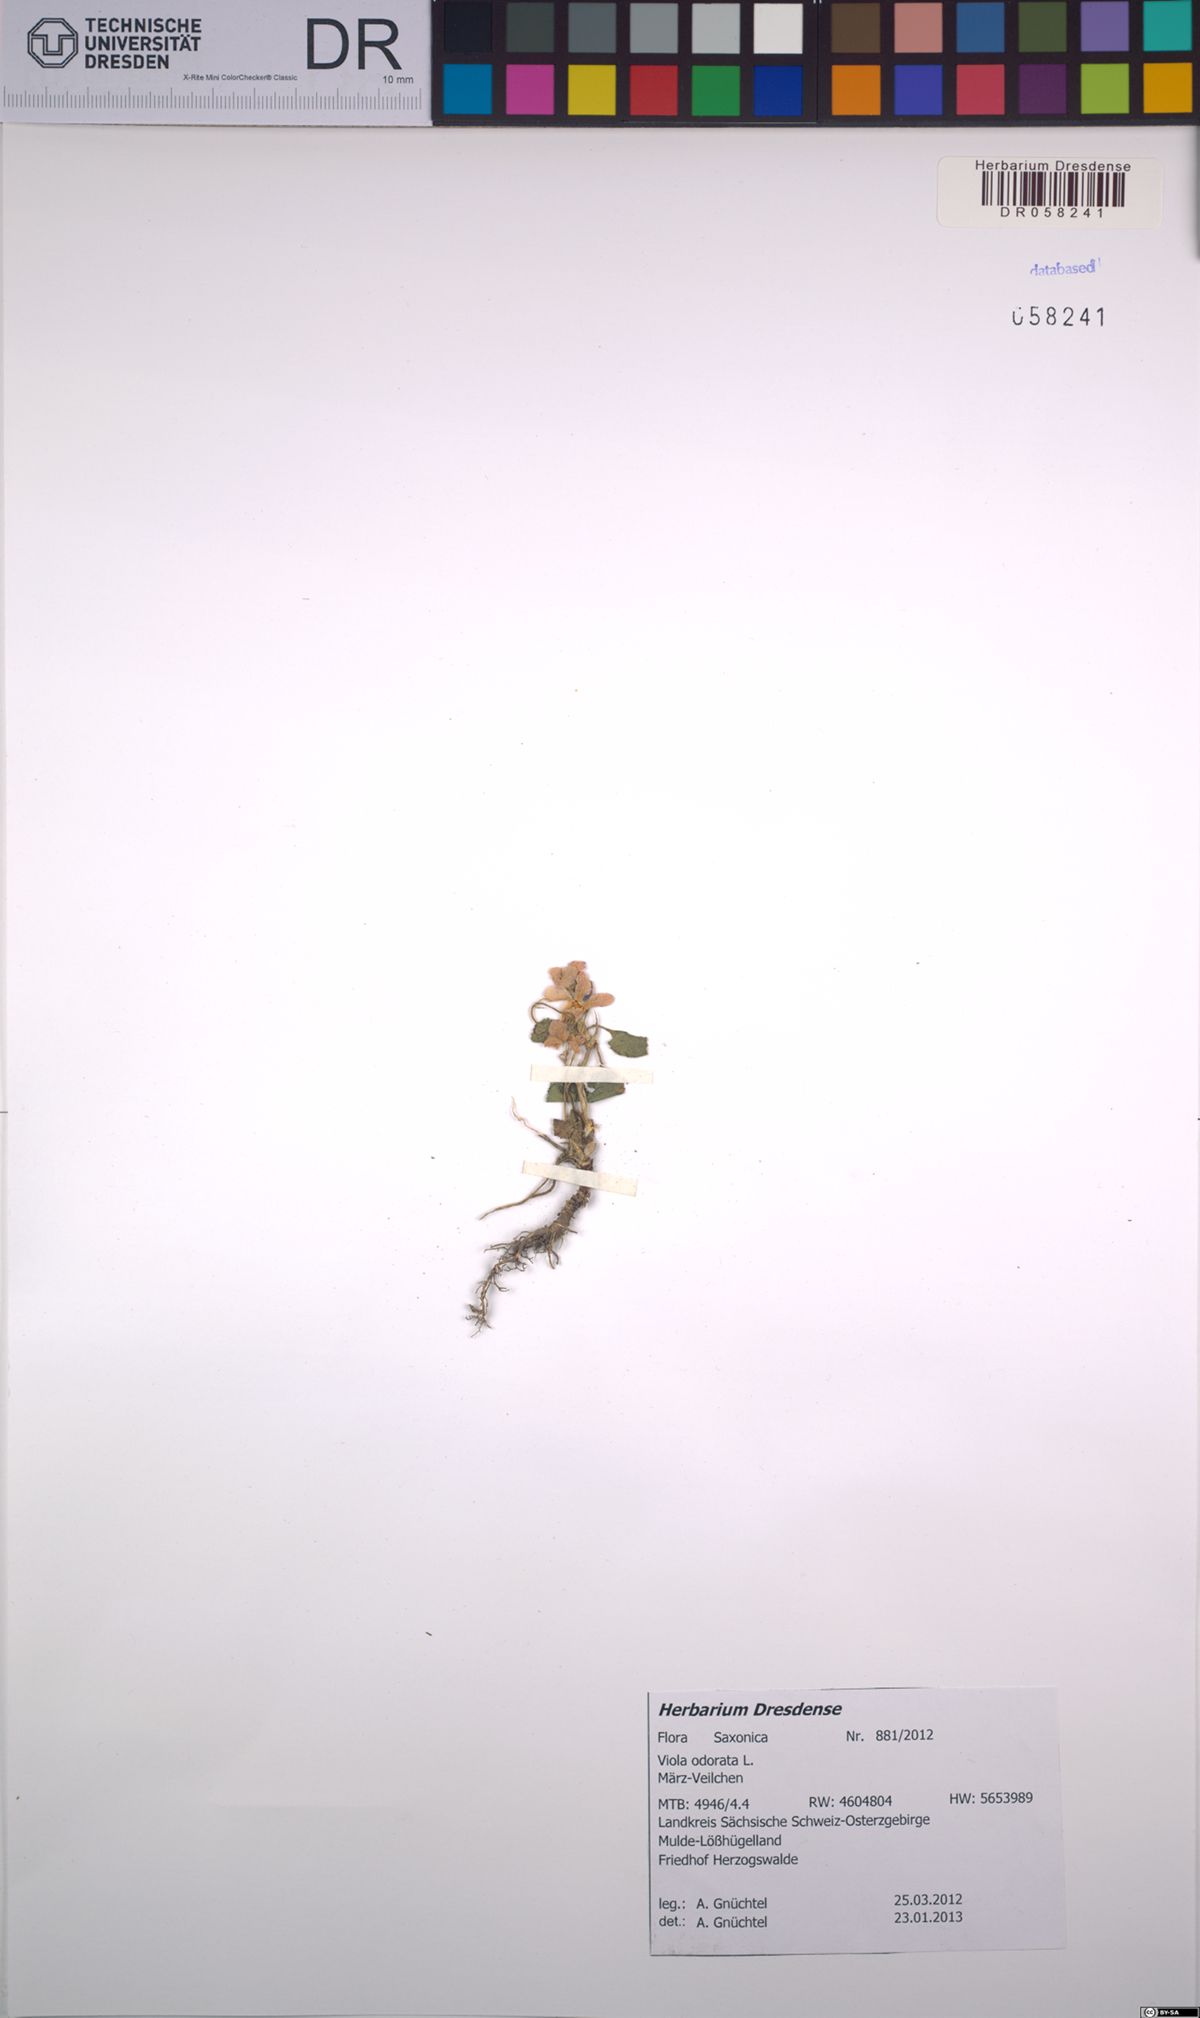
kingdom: Plantae
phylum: Tracheophyta
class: Magnoliopsida
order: Malpighiales
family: Violaceae
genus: Viola
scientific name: Viola odorata
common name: Sweet violet
